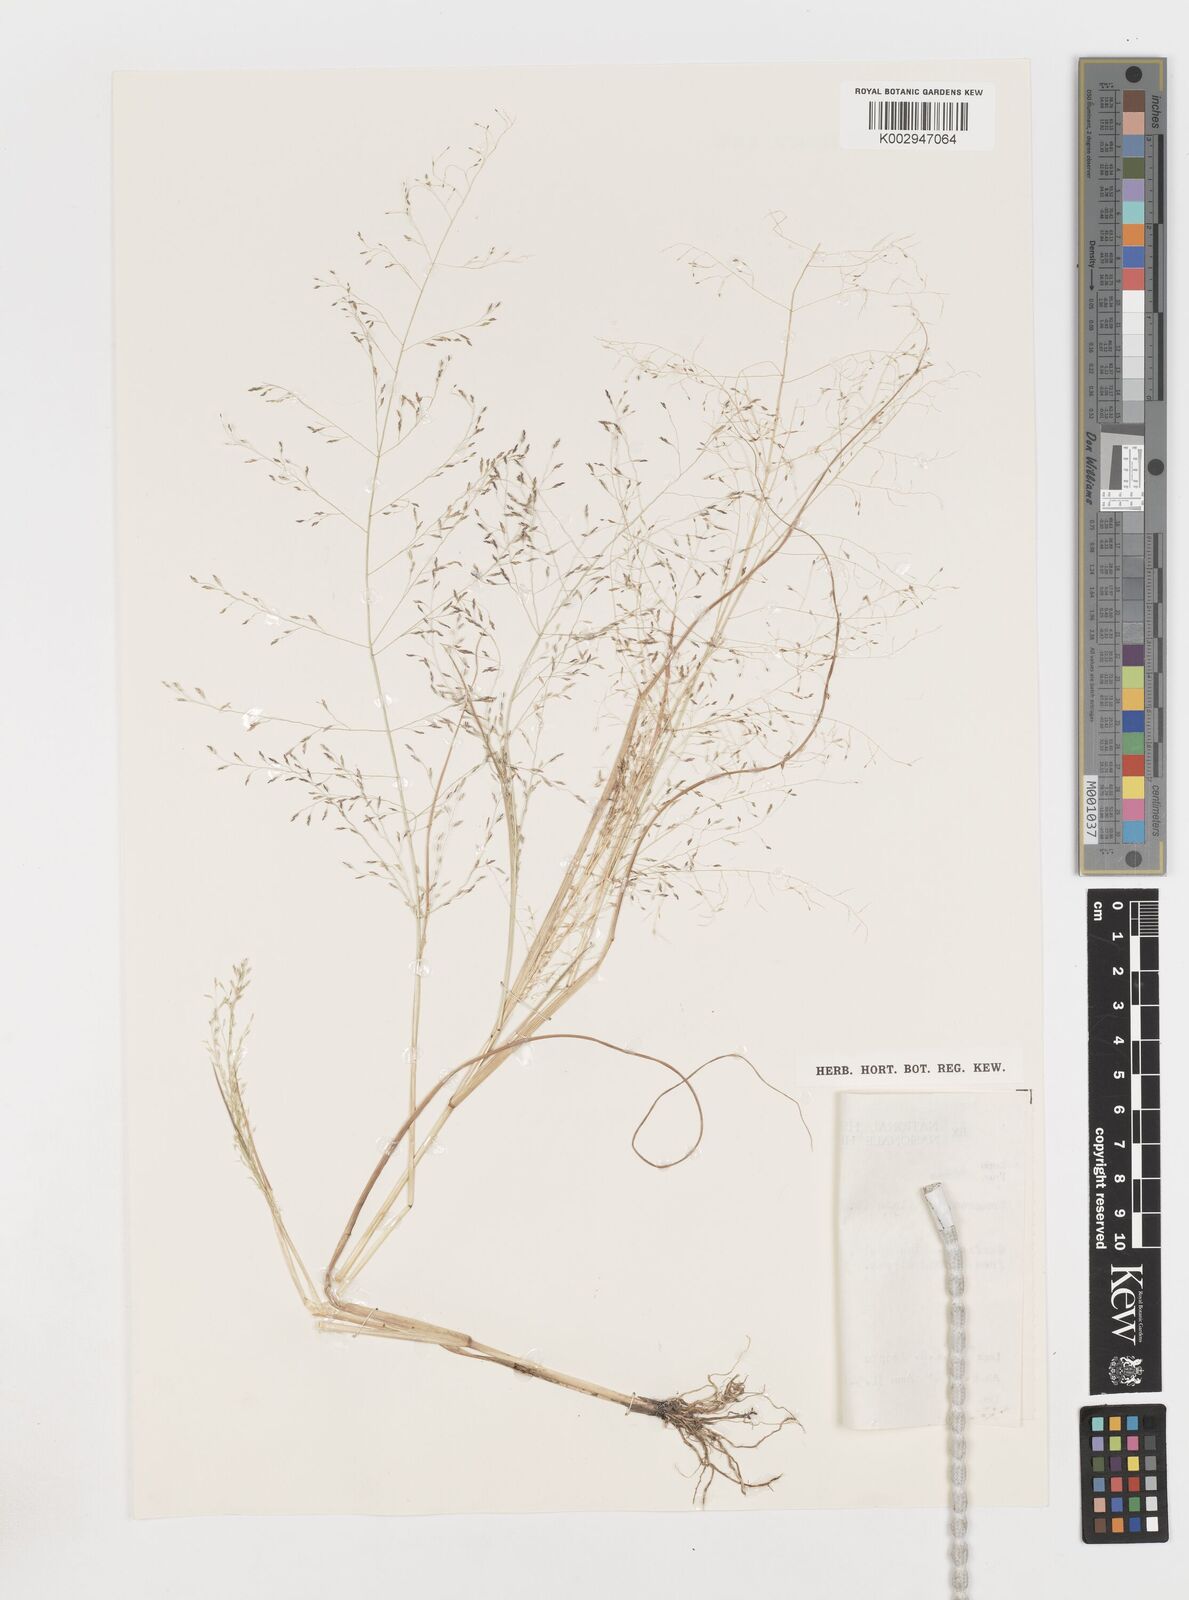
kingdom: Plantae
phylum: Tracheophyta
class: Liliopsida
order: Poales
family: Poaceae
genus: Eragrostis
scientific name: Eragrostis pilosa
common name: Indian lovegrass
